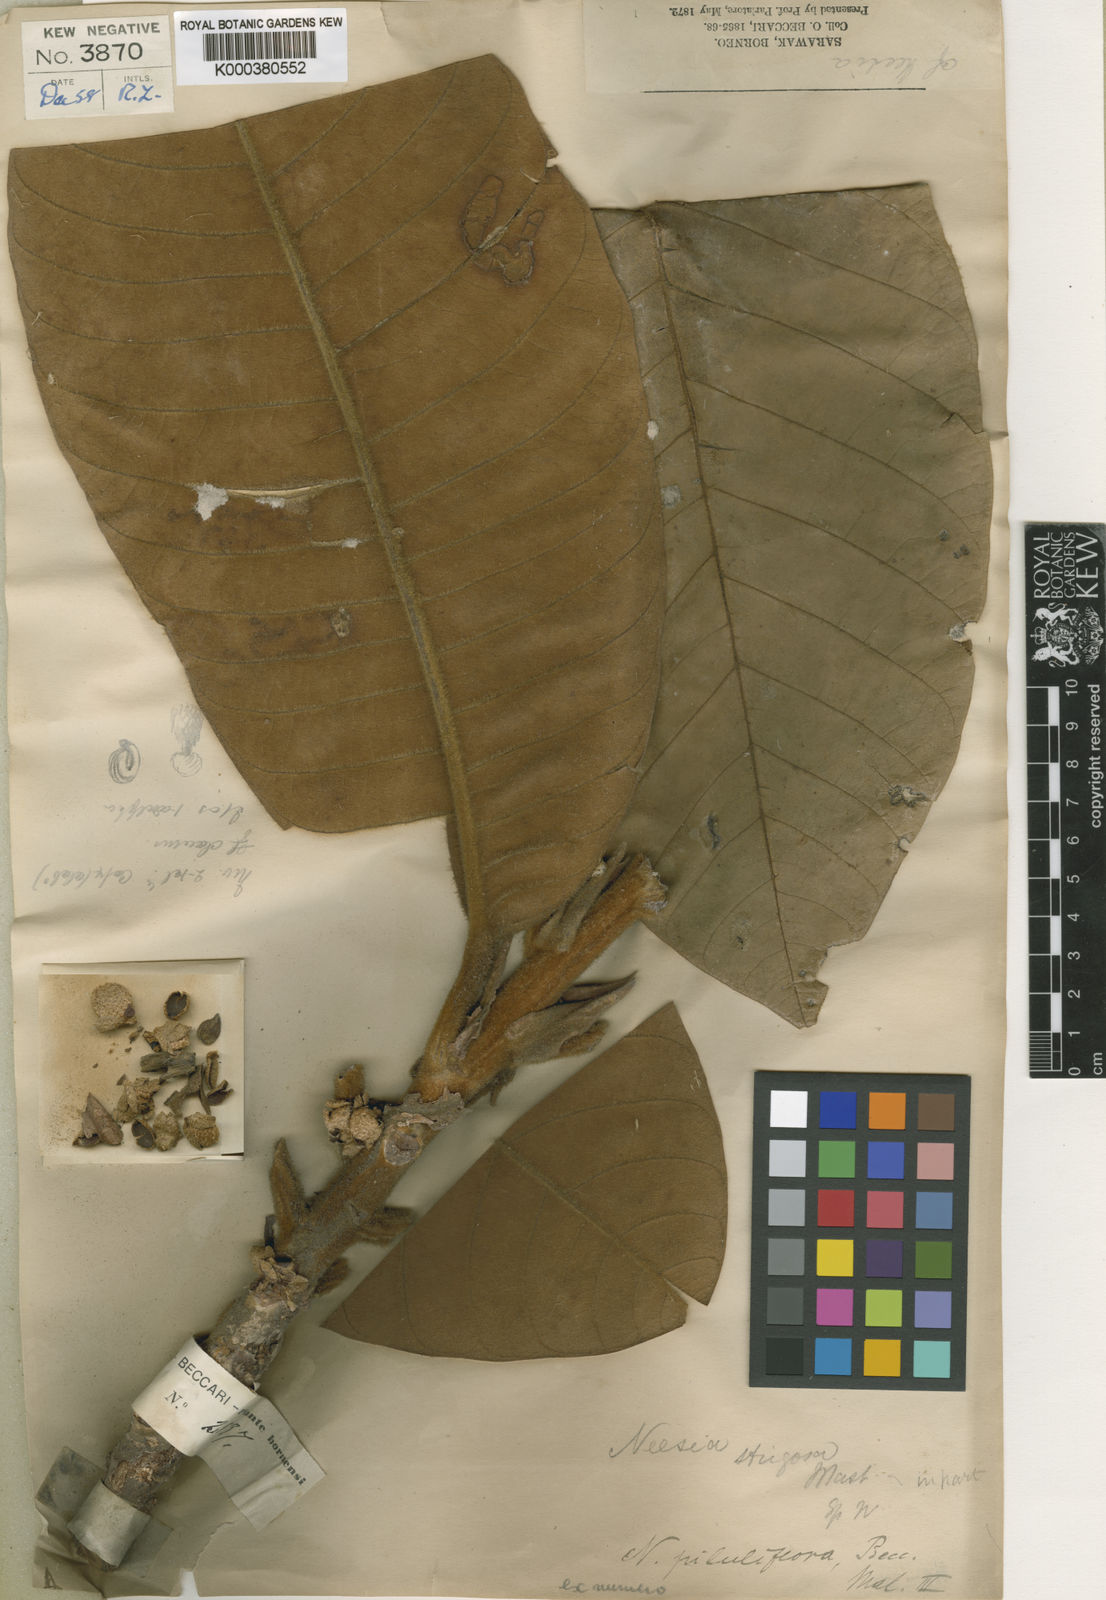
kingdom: Plantae
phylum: Tracheophyta
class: Magnoliopsida
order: Malvales
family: Malvaceae
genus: Neesia
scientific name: Neesia piluliflora
